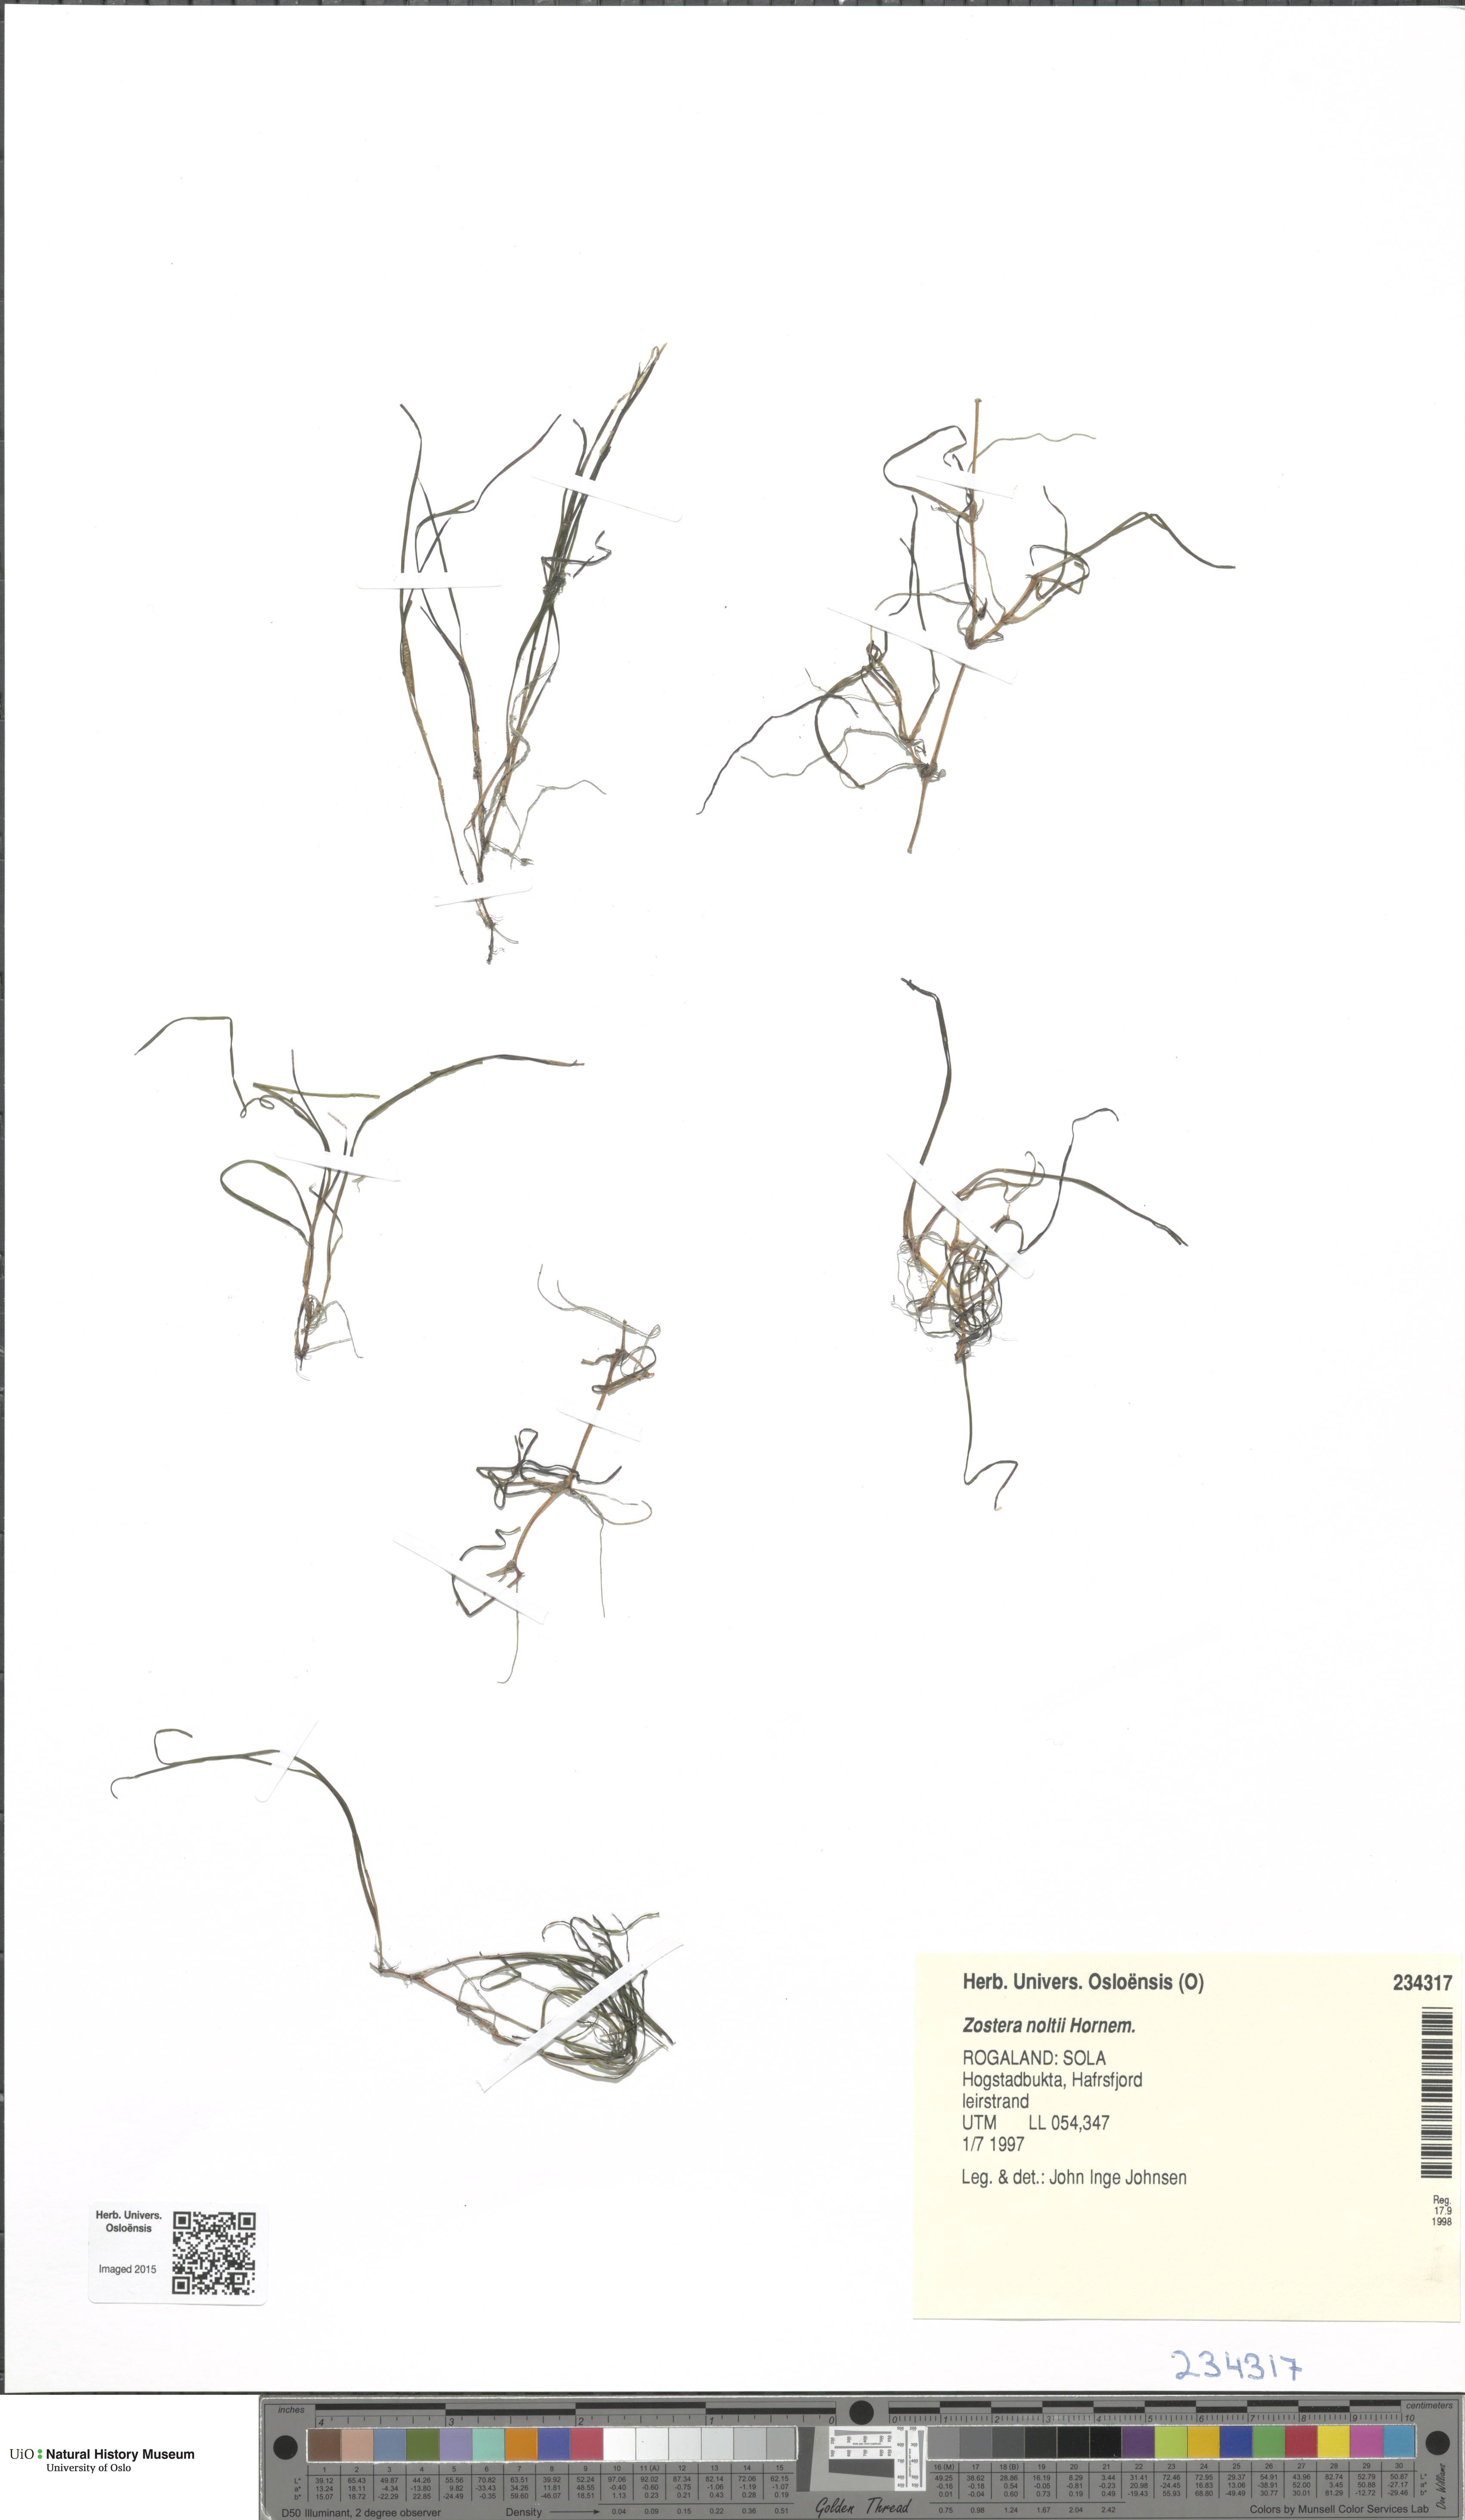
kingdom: Plantae
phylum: Tracheophyta
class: Liliopsida
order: Alismatales
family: Zosteraceae
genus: Zostera
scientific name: Zostera noltii
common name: Dwarf eelgrass
